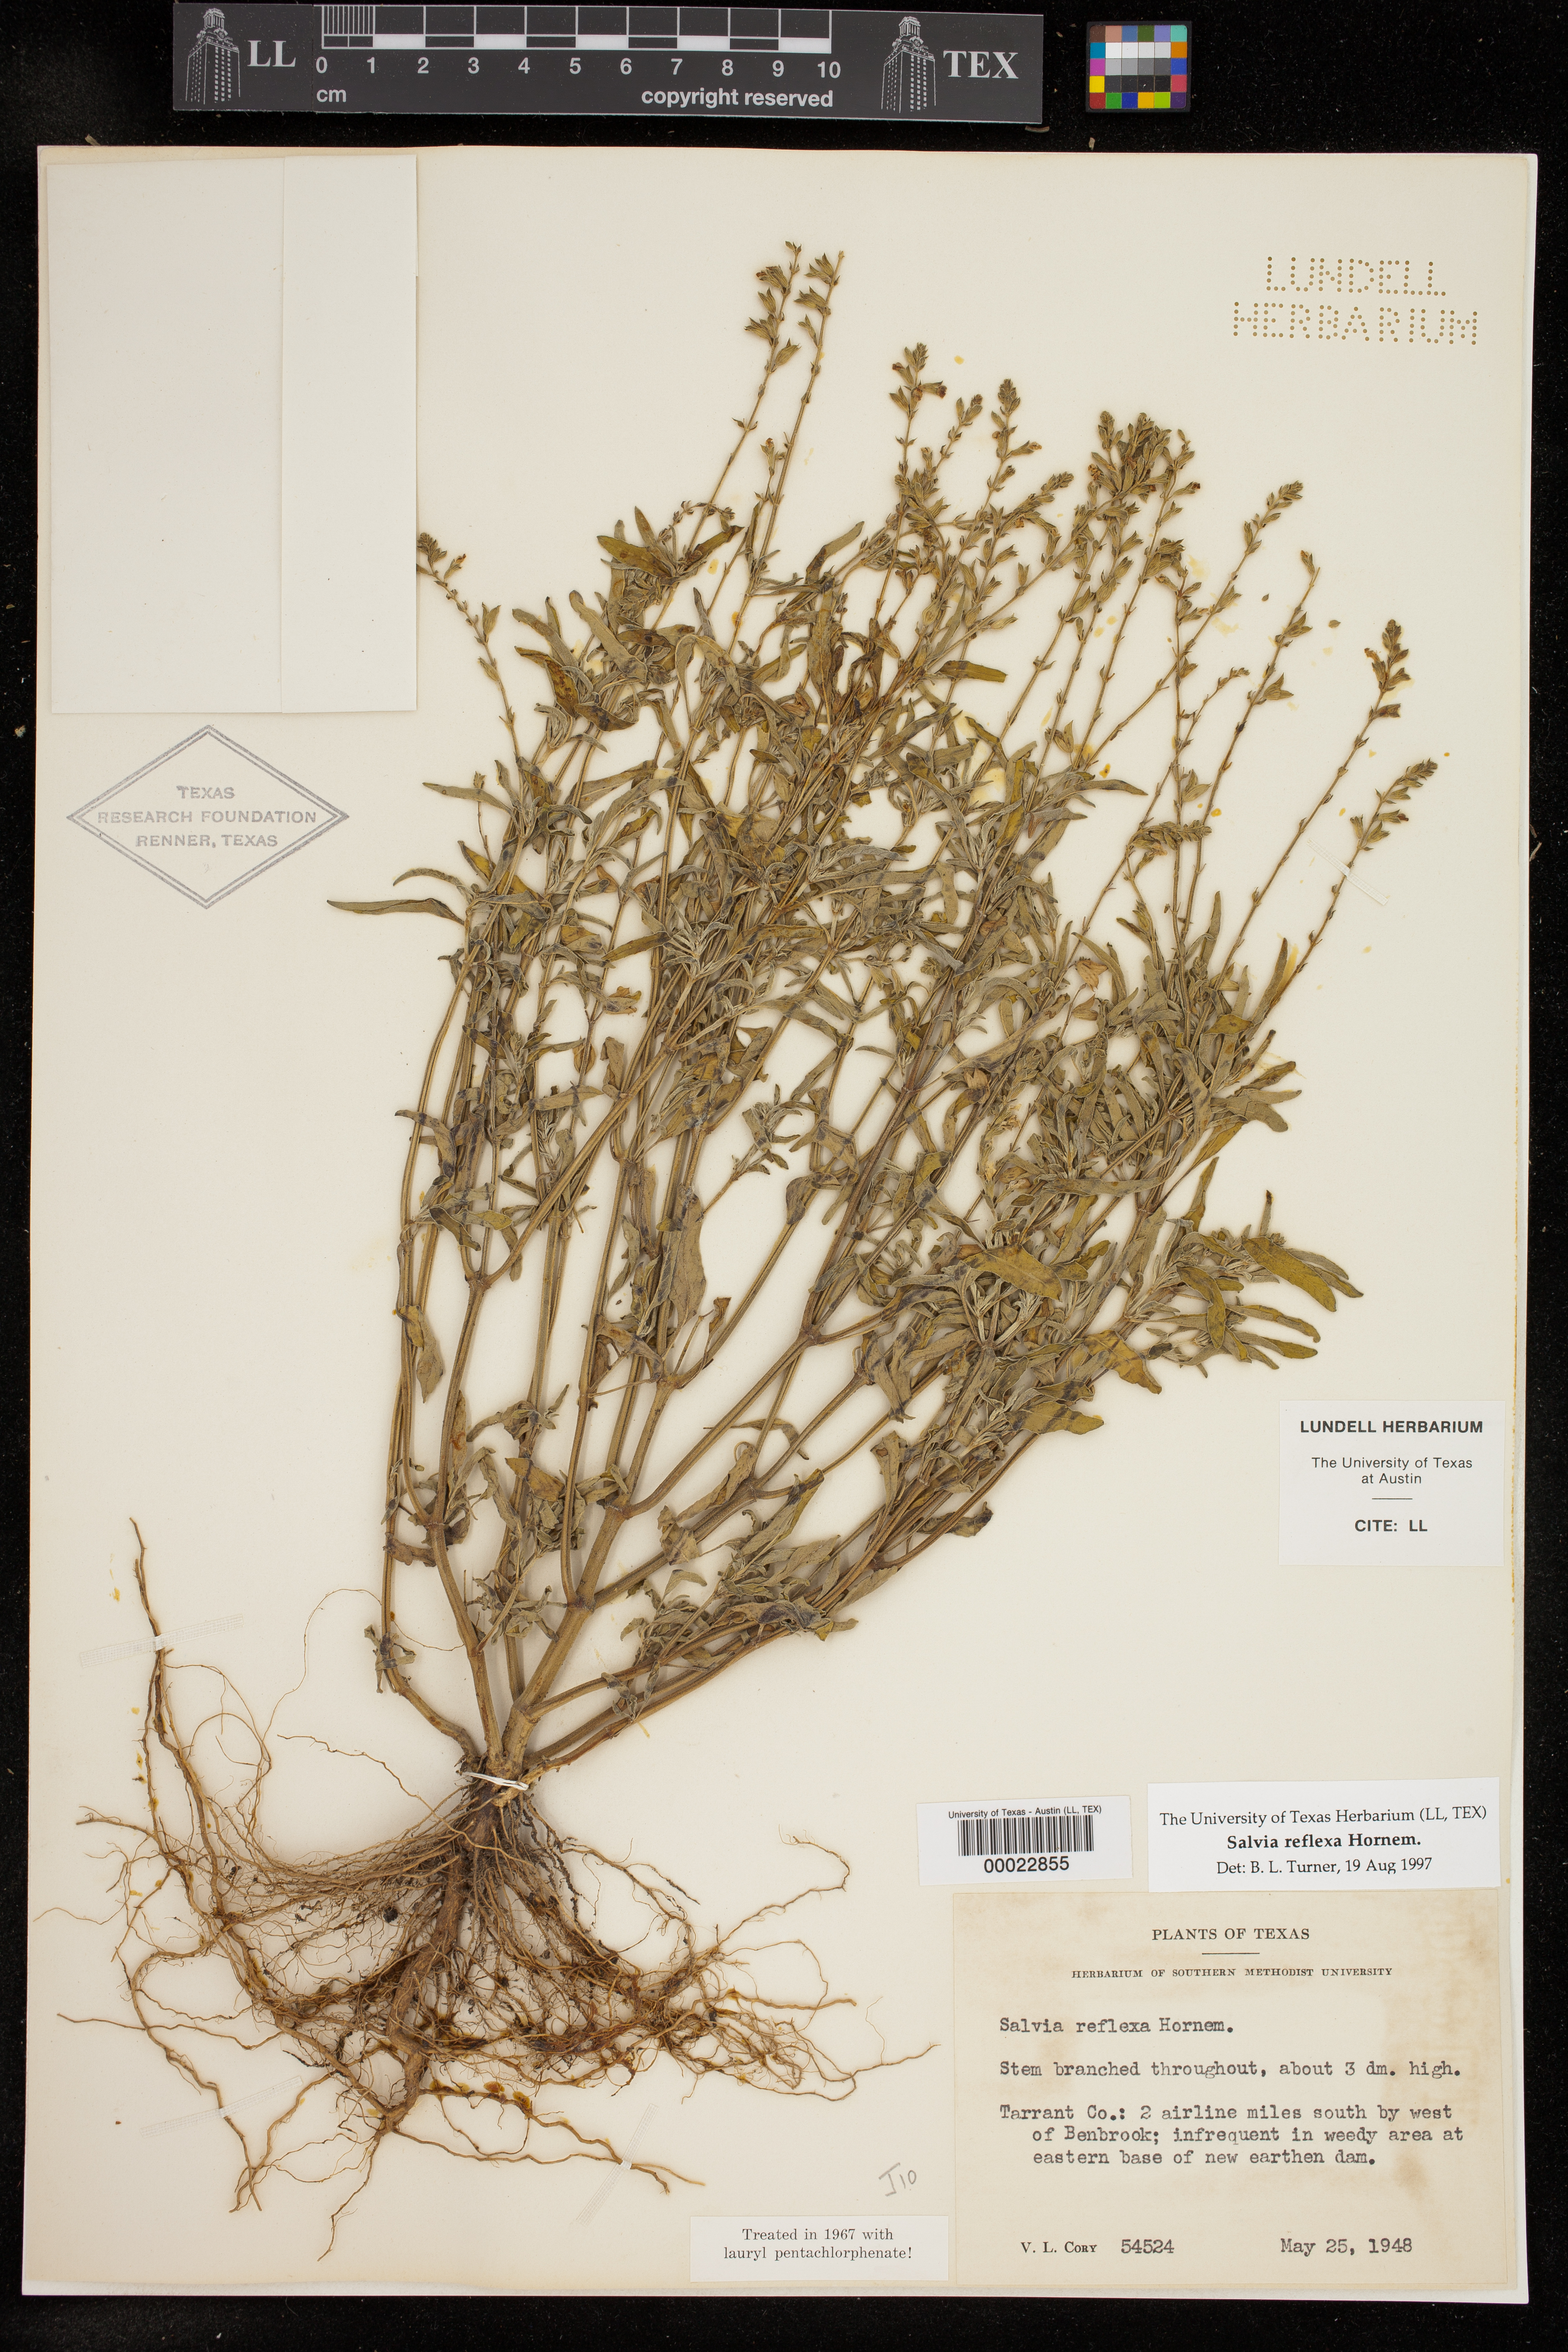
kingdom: Plantae
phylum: Tracheophyta
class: Magnoliopsida
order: Lamiales
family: Lamiaceae
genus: Salvia
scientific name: Salvia reflexa
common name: Mintweed
